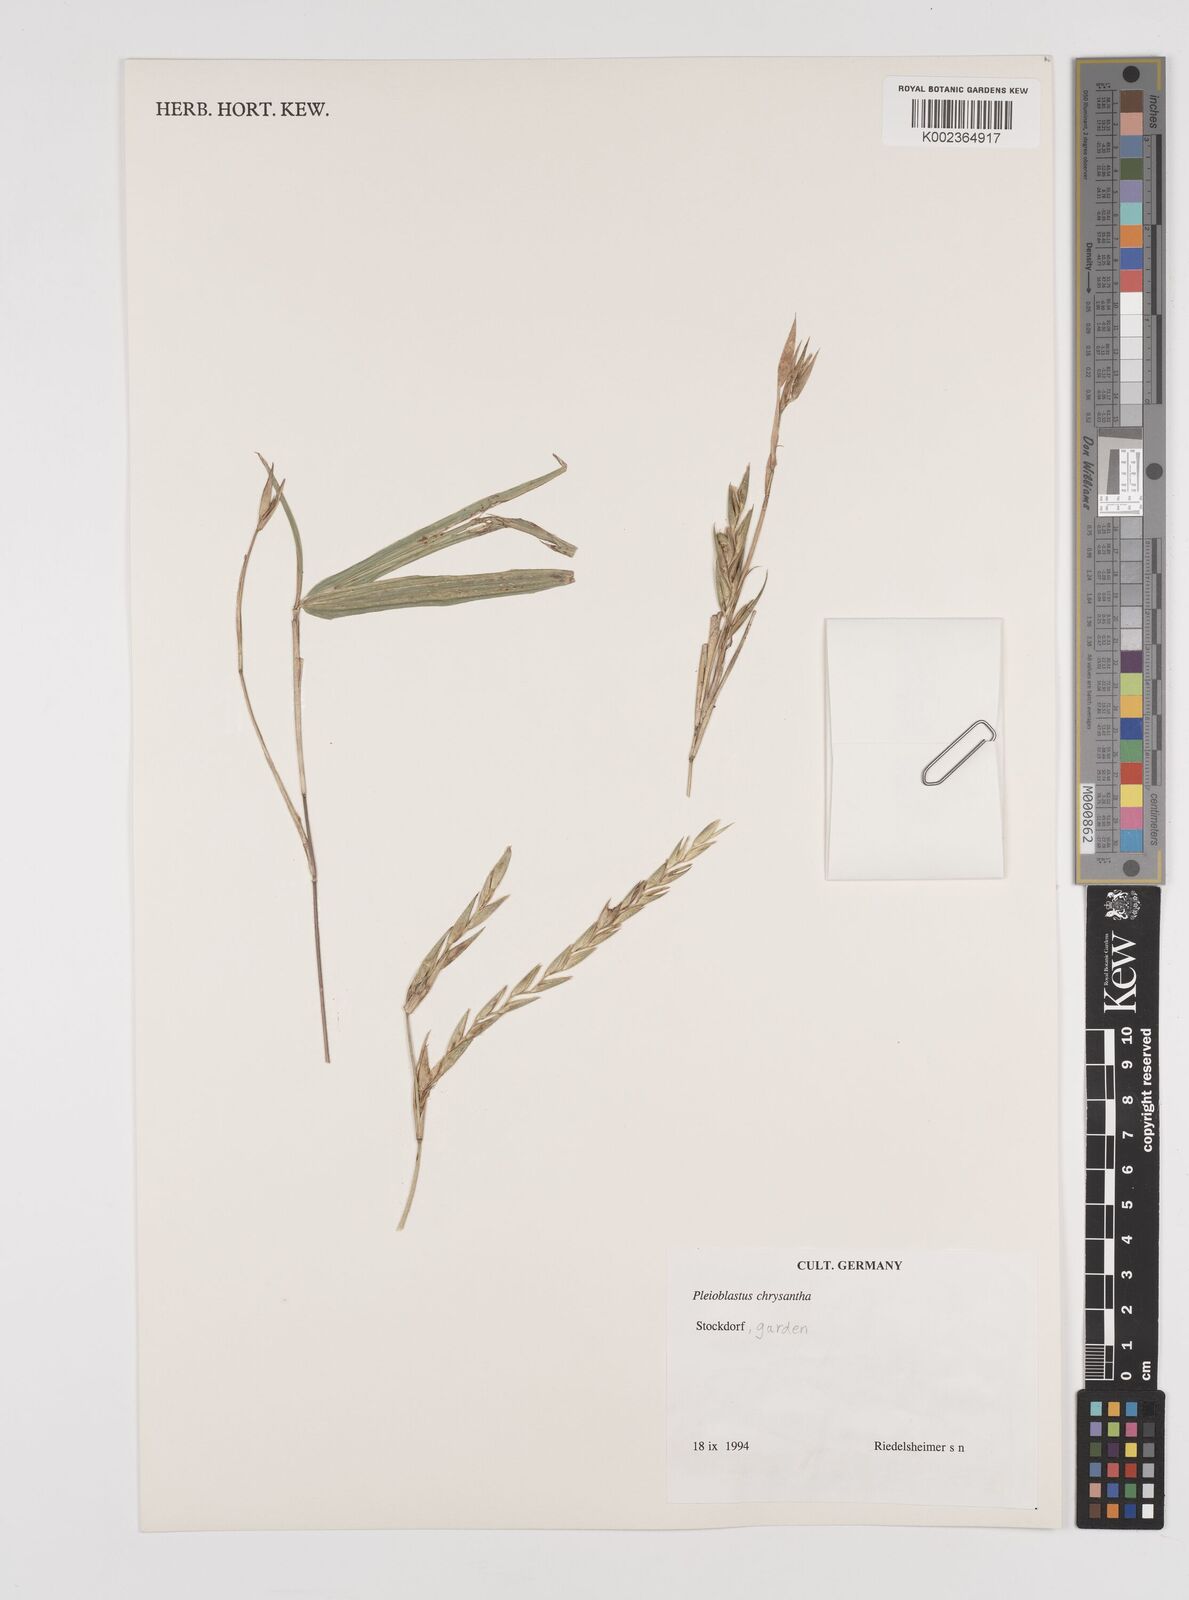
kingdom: Plantae
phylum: Tracheophyta
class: Liliopsida
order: Poales
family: Poaceae
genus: Pleioblastus
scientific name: Pleioblastus argenteostriatus
